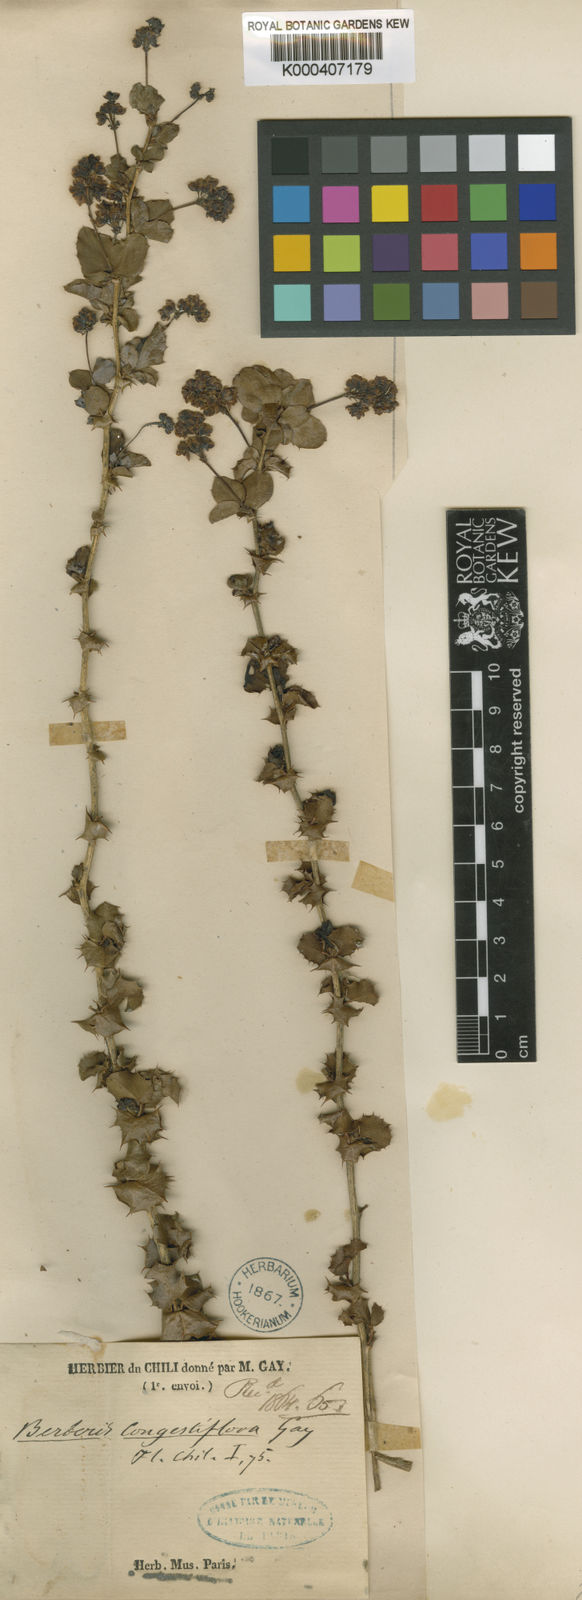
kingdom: Plantae
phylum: Tracheophyta
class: Magnoliopsida
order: Ranunculales
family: Berberidaceae
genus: Berberis
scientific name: Berberis congestiflora
